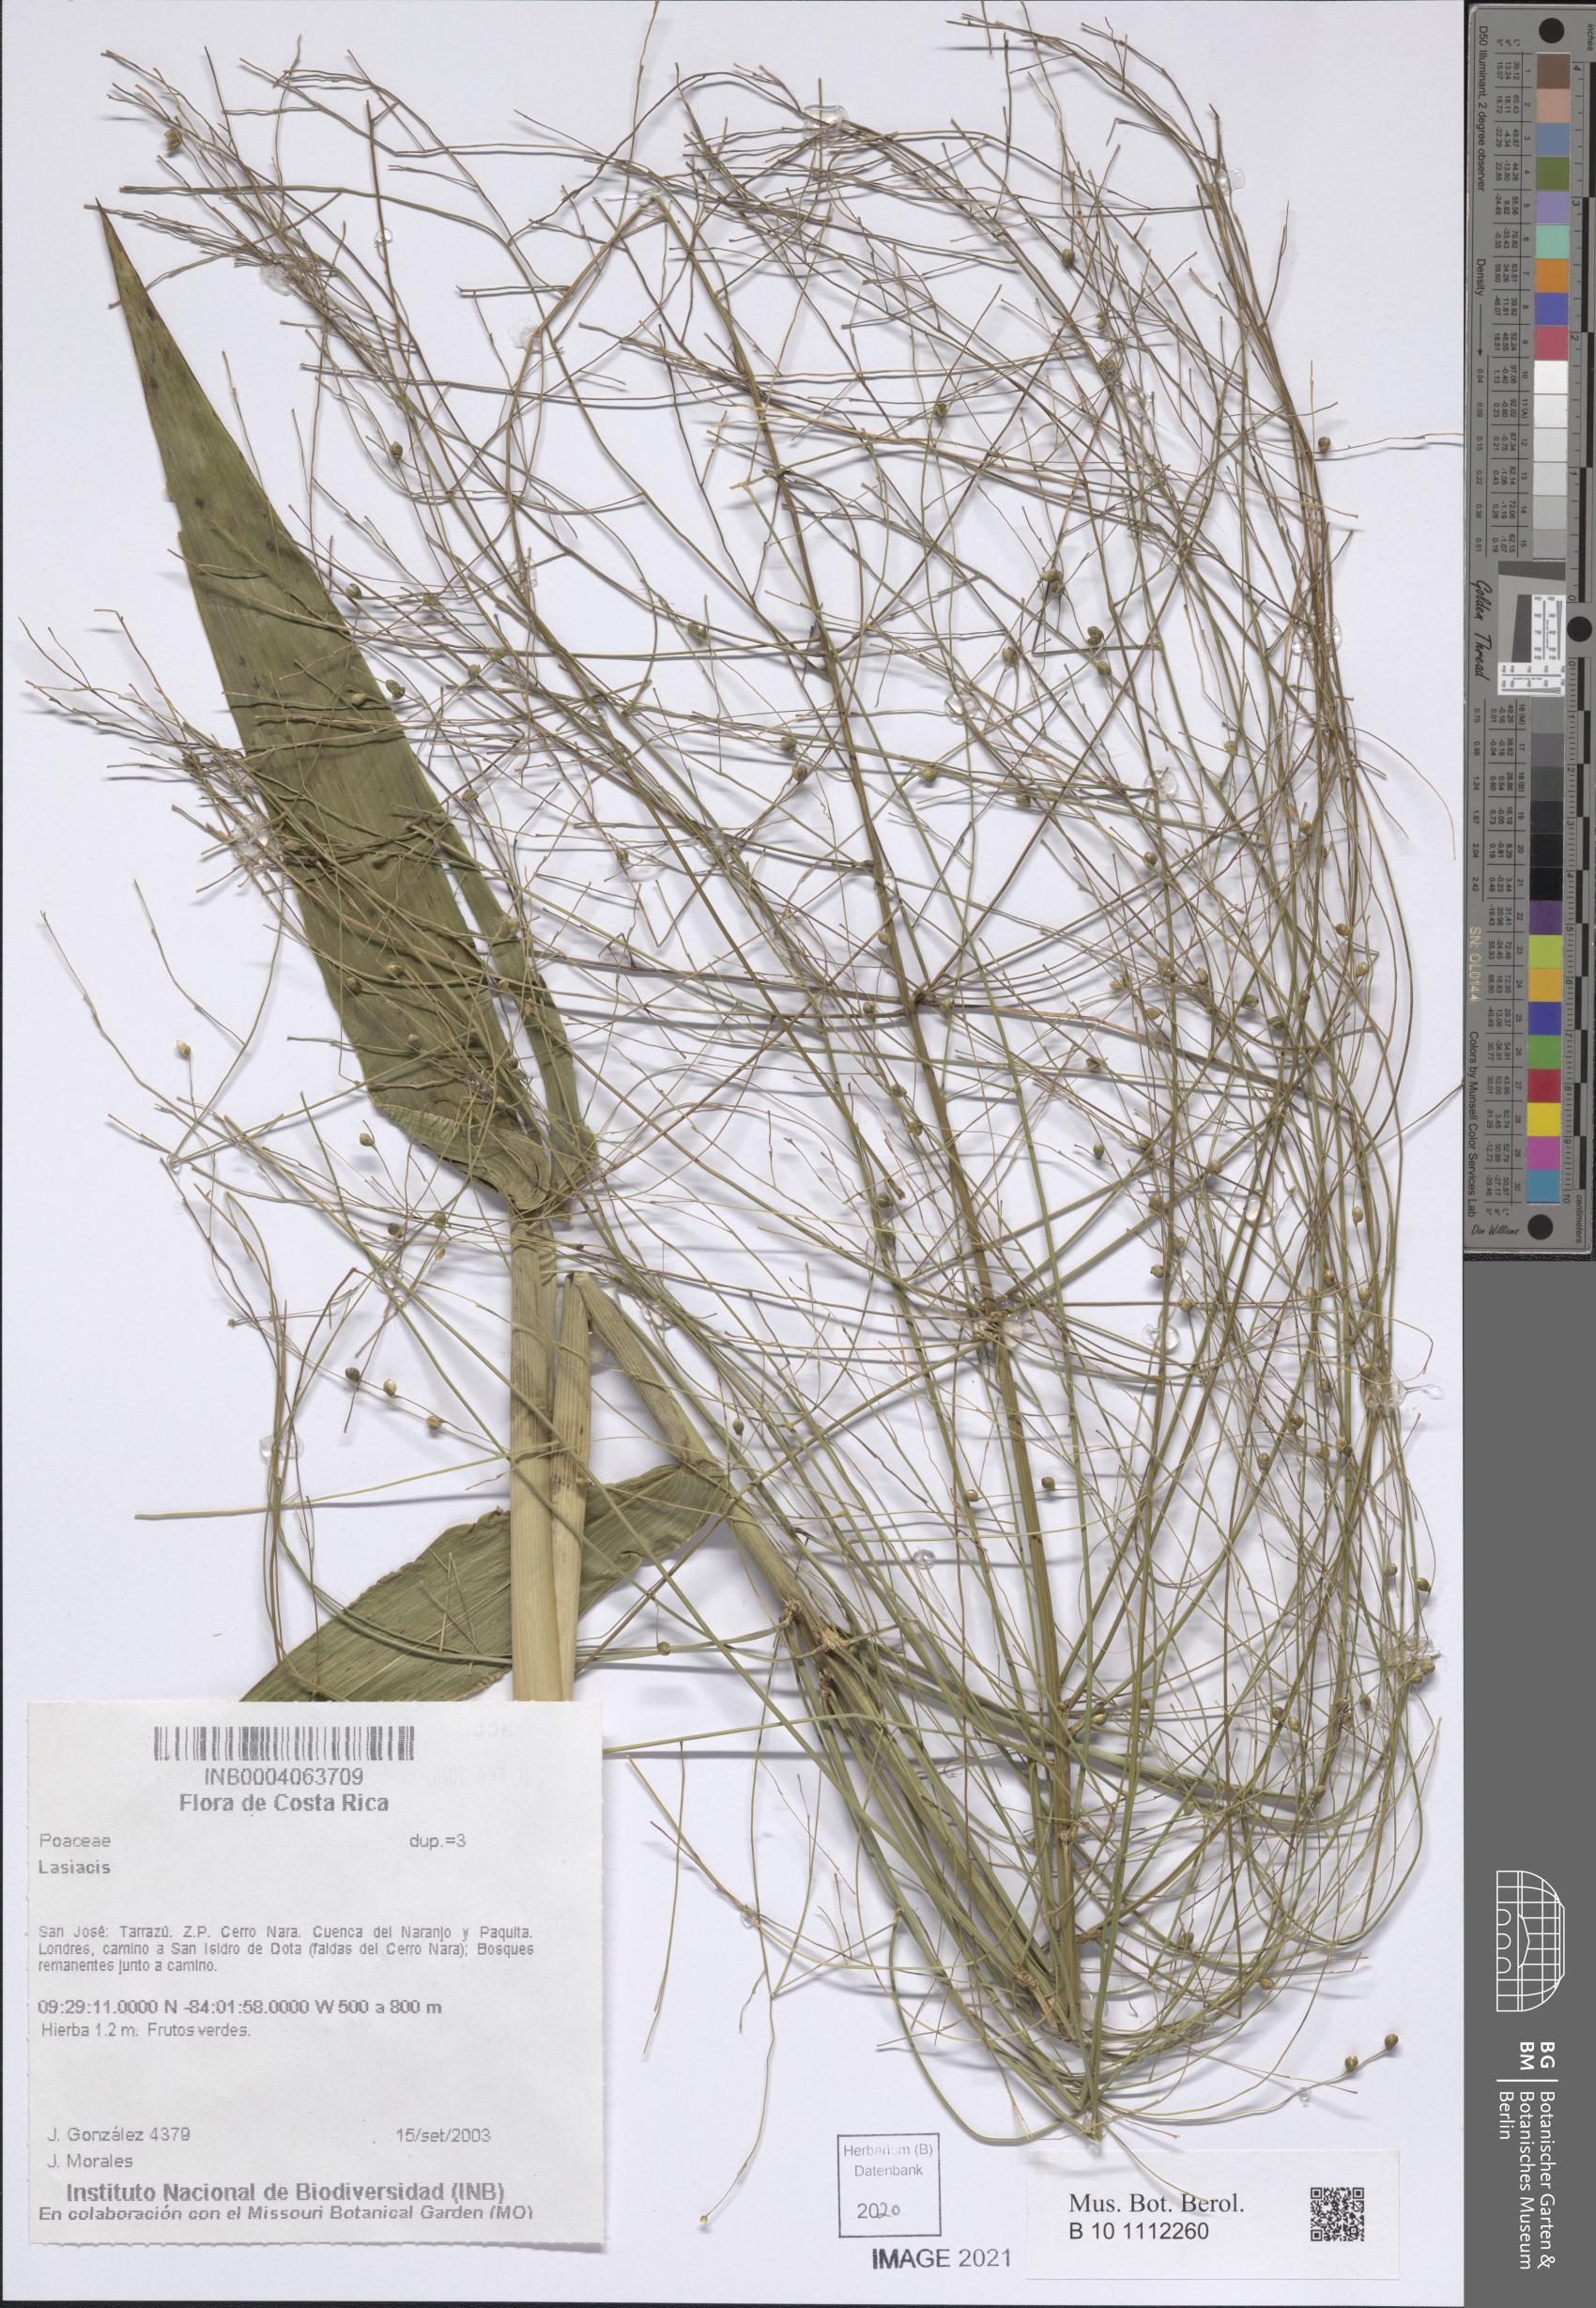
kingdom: Plantae
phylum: Tracheophyta
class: Liliopsida
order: Poales
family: Poaceae
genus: Lasiacis
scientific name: Lasiacis
